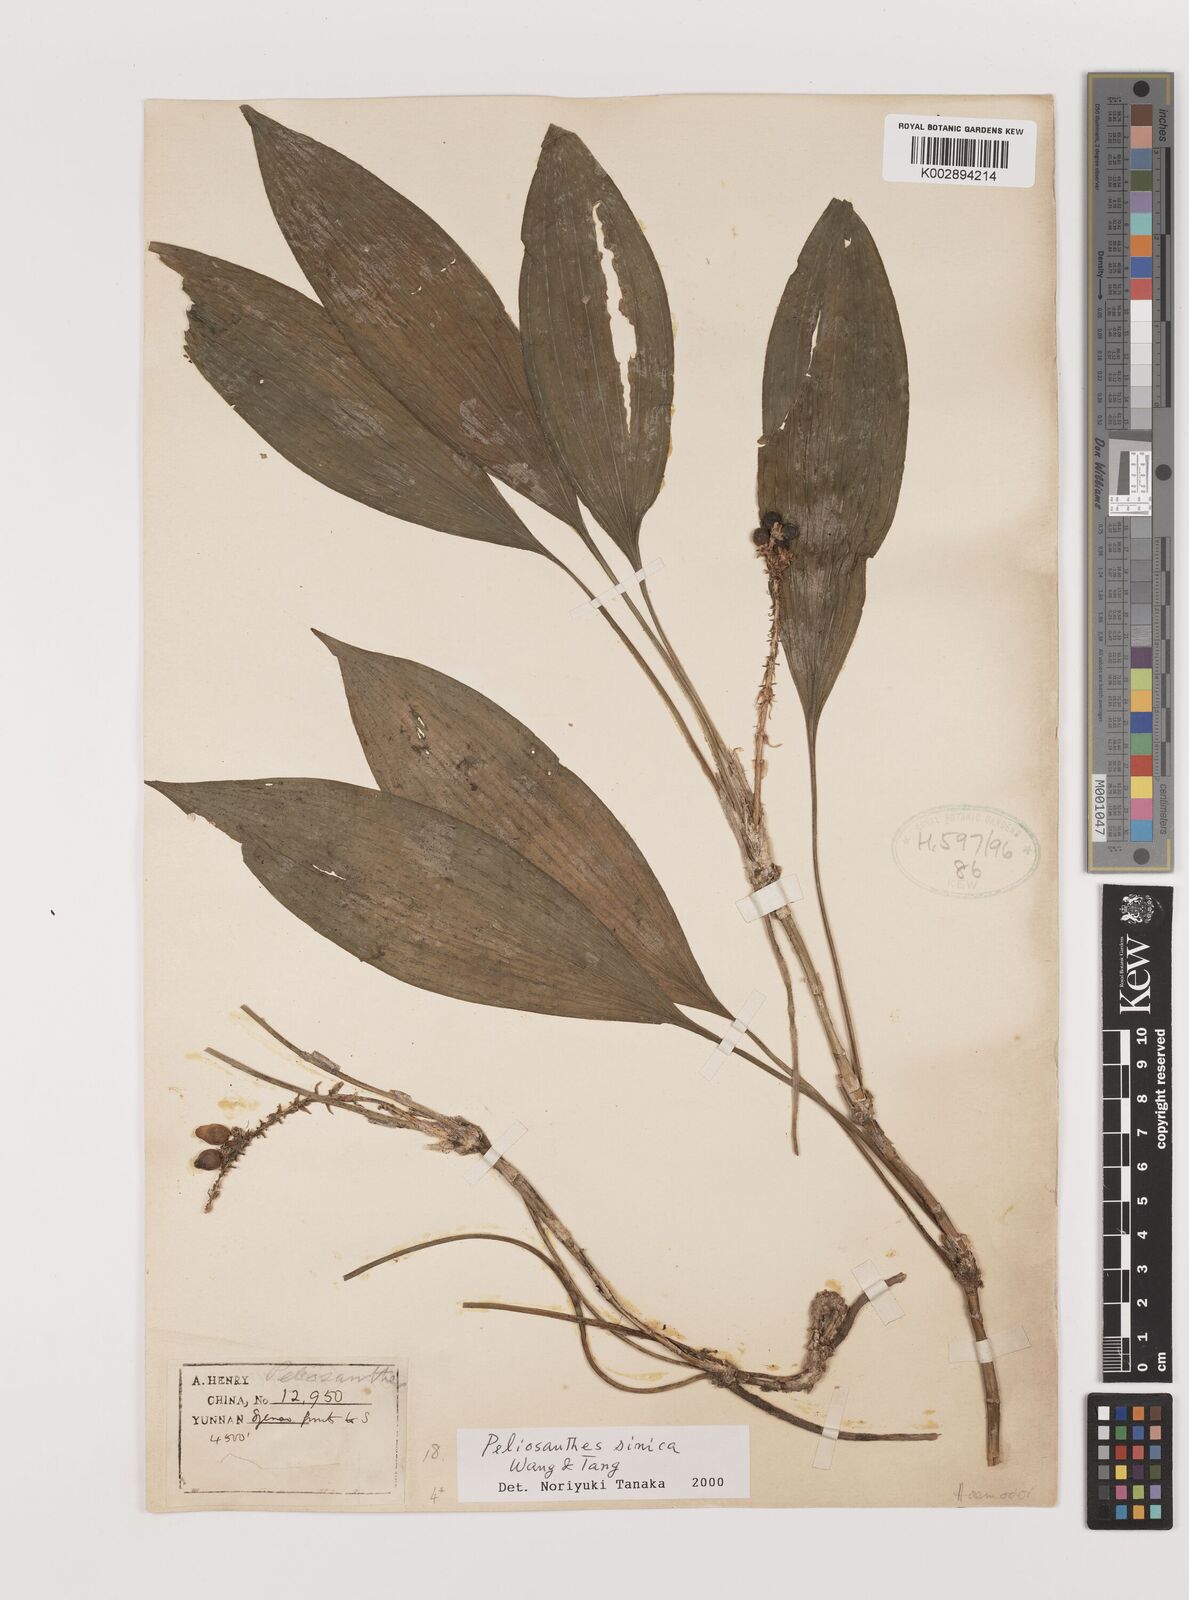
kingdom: Plantae
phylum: Tracheophyta
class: Liliopsida
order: Asparagales
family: Asparagaceae
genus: Peliosanthes
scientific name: Peliosanthes sinica
